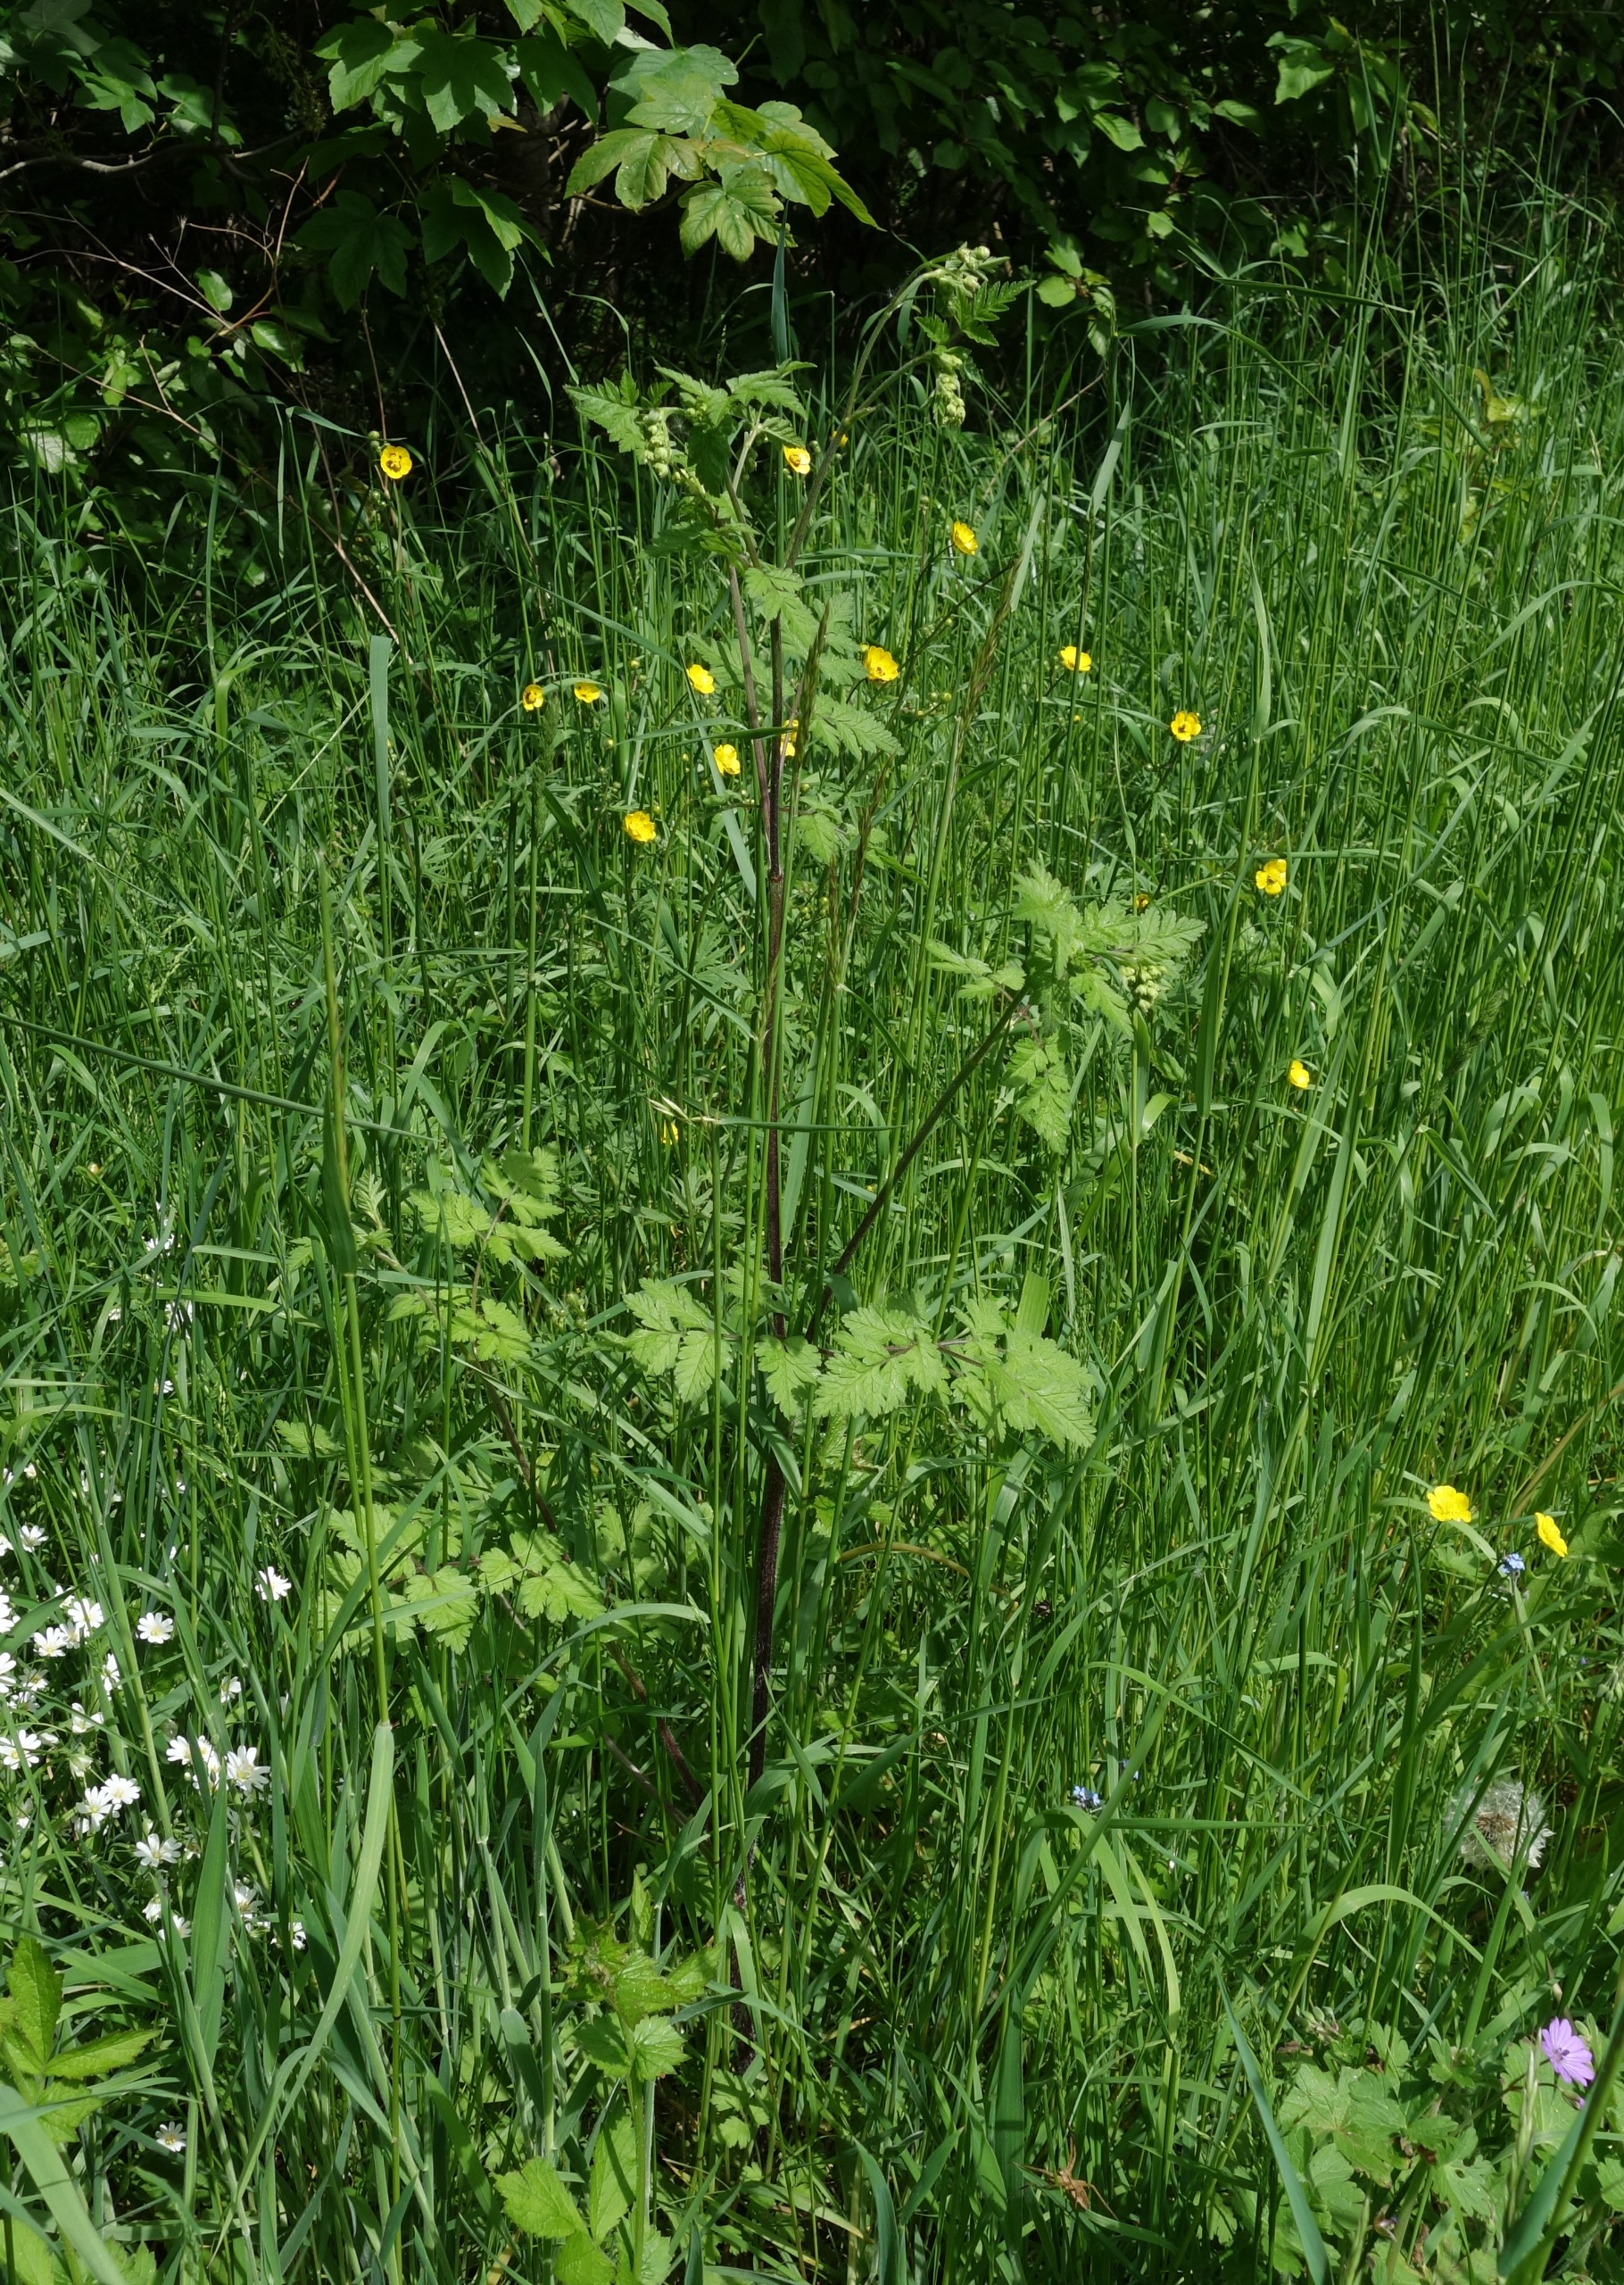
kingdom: Plantae
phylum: Tracheophyta
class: Magnoliopsida
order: Apiales
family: Apiaceae
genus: Chaerophyllum
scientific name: Chaerophyllum temulum
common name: Almindelig hulsvøb
